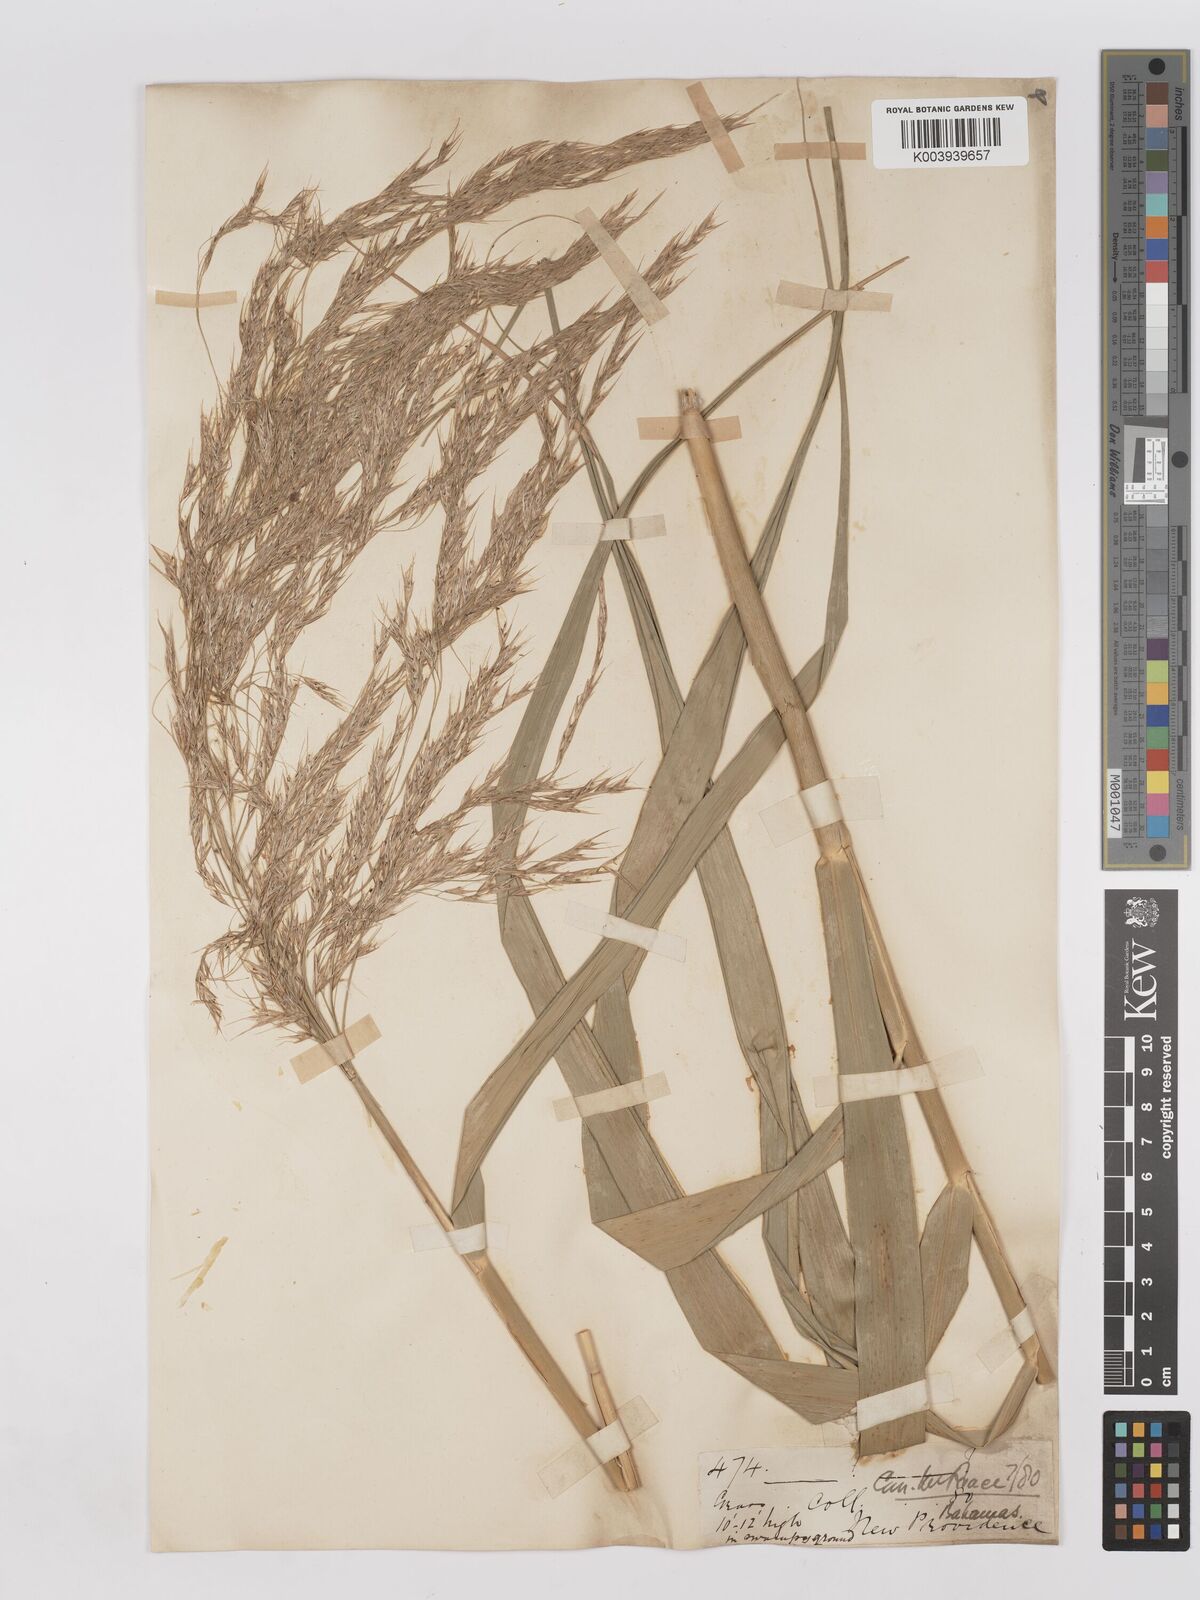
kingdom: Plantae
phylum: Tracheophyta
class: Liliopsida
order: Poales
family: Poaceae
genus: Phragmites
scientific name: Phragmites australis
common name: Common reed
